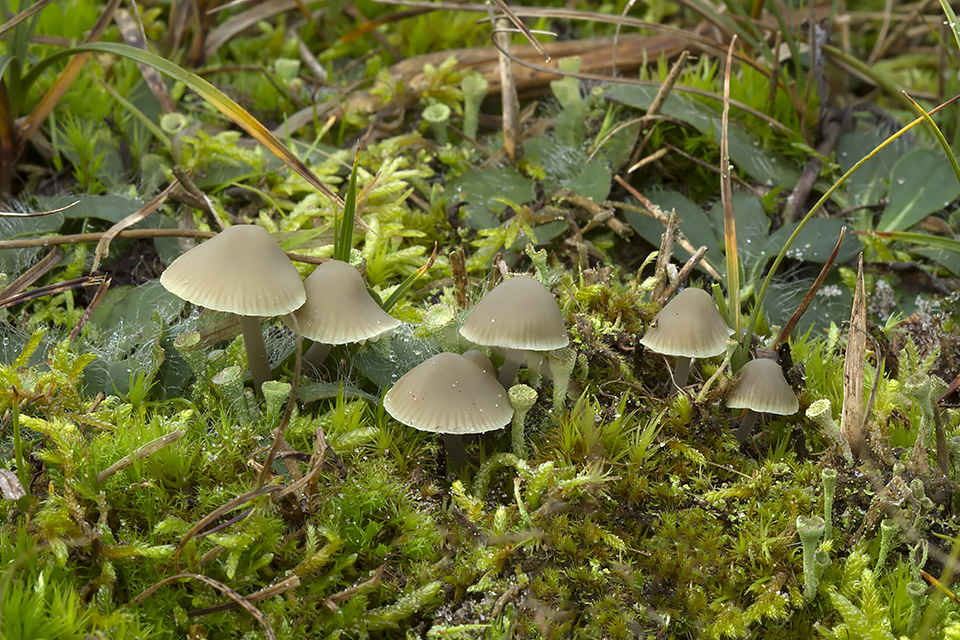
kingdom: Fungi
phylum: Basidiomycota
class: Agaricomycetes
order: Agaricales
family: Mycenaceae
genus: Mycena
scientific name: Mycena chlorantha
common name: klit-huesvamp
